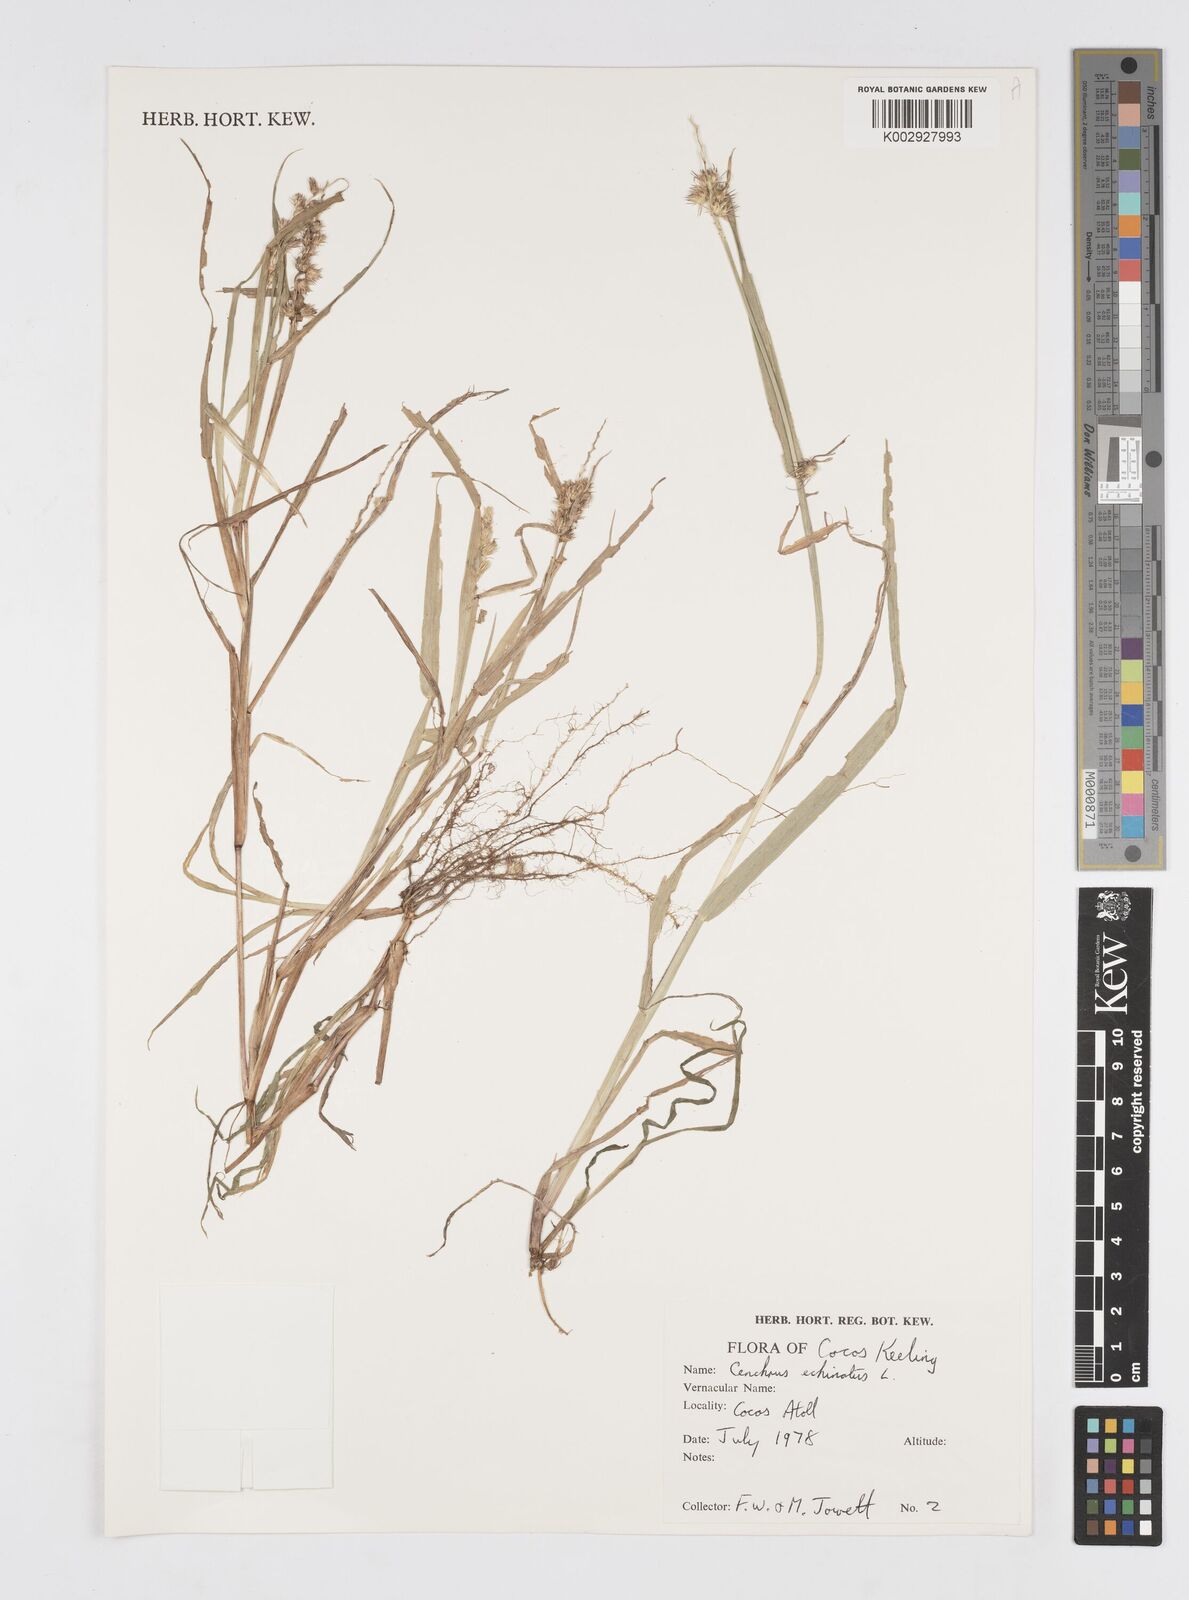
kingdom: Plantae
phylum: Tracheophyta
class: Liliopsida
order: Poales
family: Poaceae
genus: Cenchrus
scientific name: Cenchrus echinatus
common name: Southern sandbur
